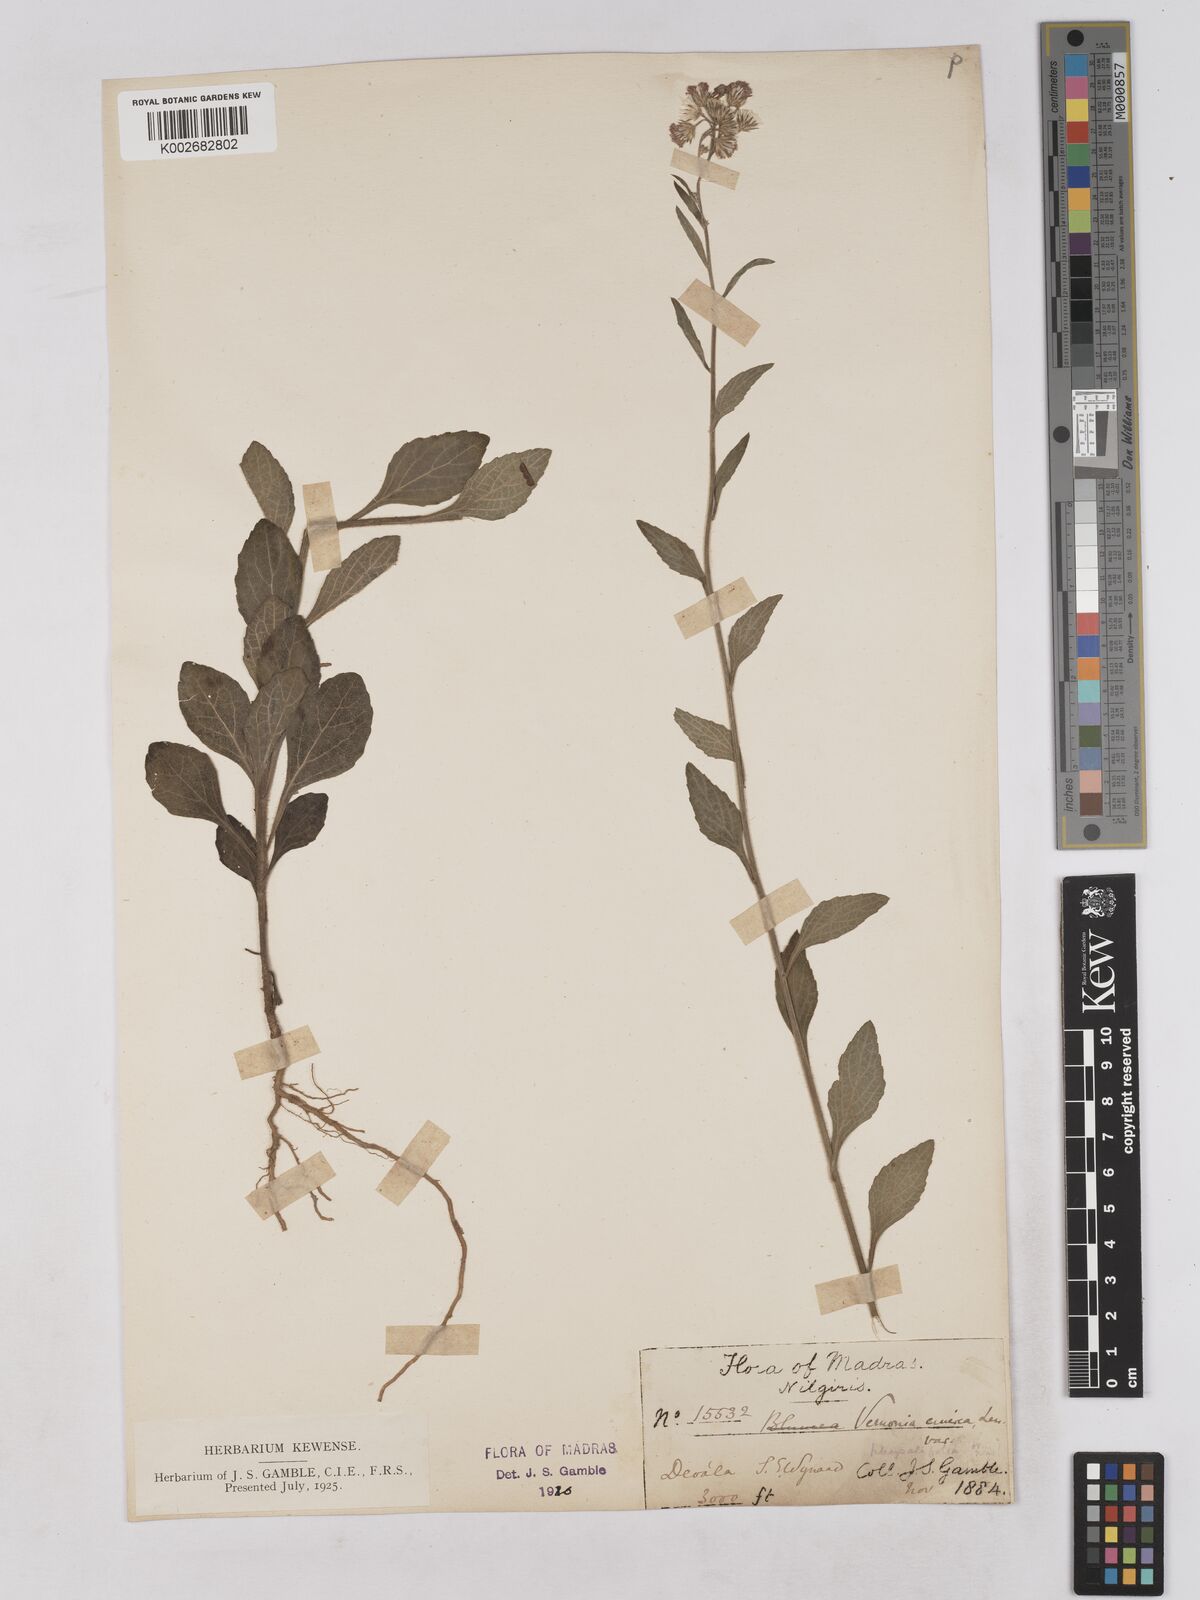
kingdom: Plantae
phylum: Tracheophyta
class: Magnoliopsida
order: Asterales
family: Asteraceae
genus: Cyanthillium
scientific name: Cyanthillium cinereum
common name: Little ironweed
